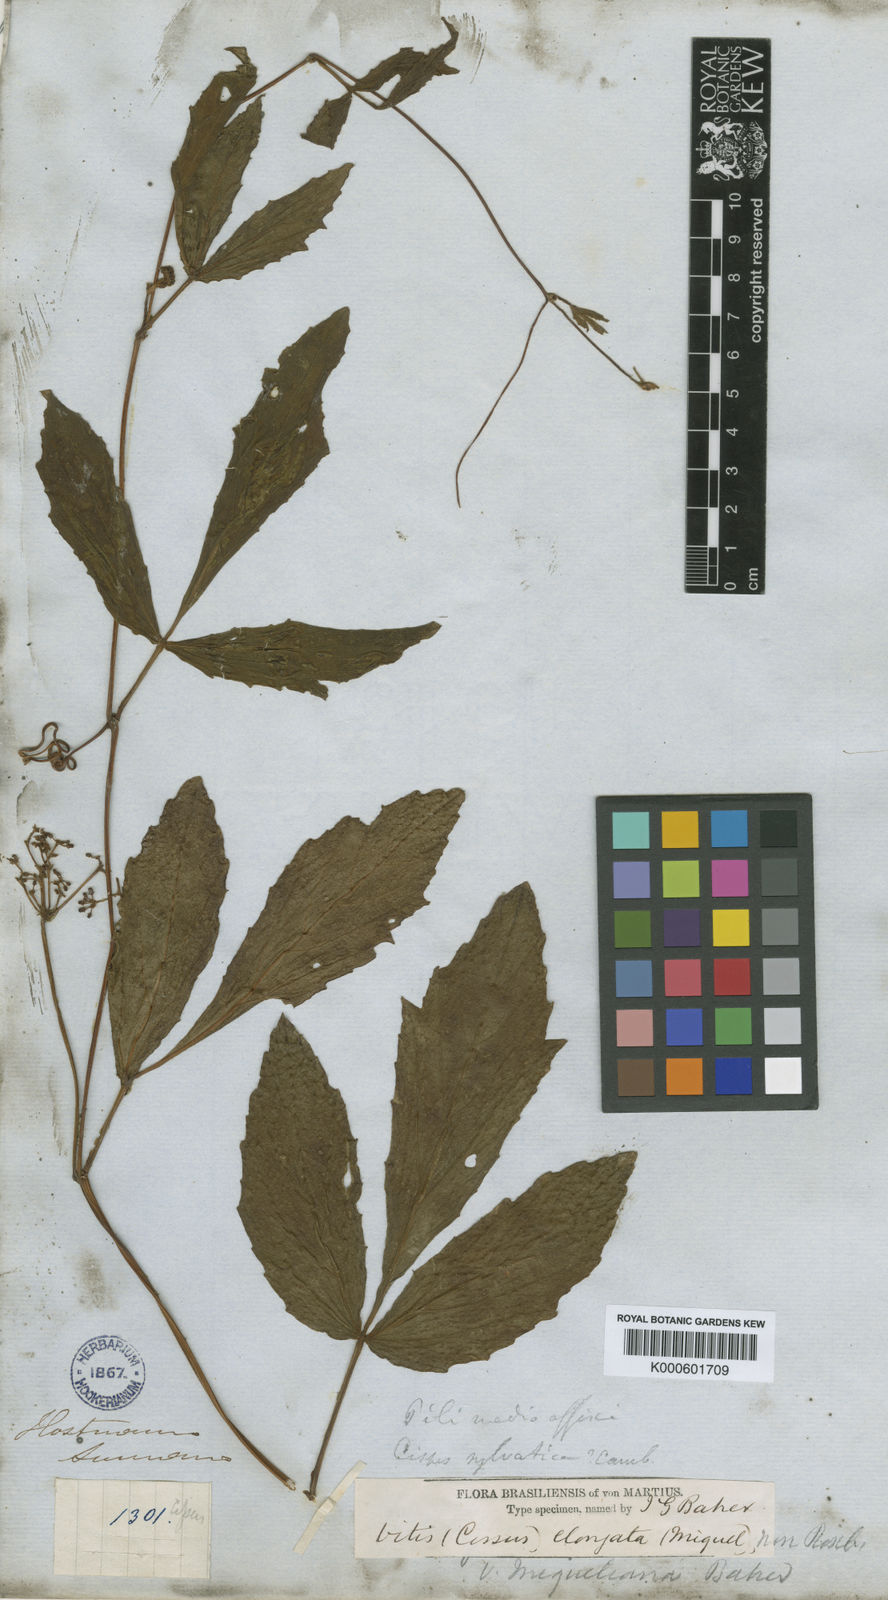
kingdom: Plantae
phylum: Tracheophyta
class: Magnoliopsida
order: Vitales
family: Vitaceae
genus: Cissus
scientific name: Cissus erosa
